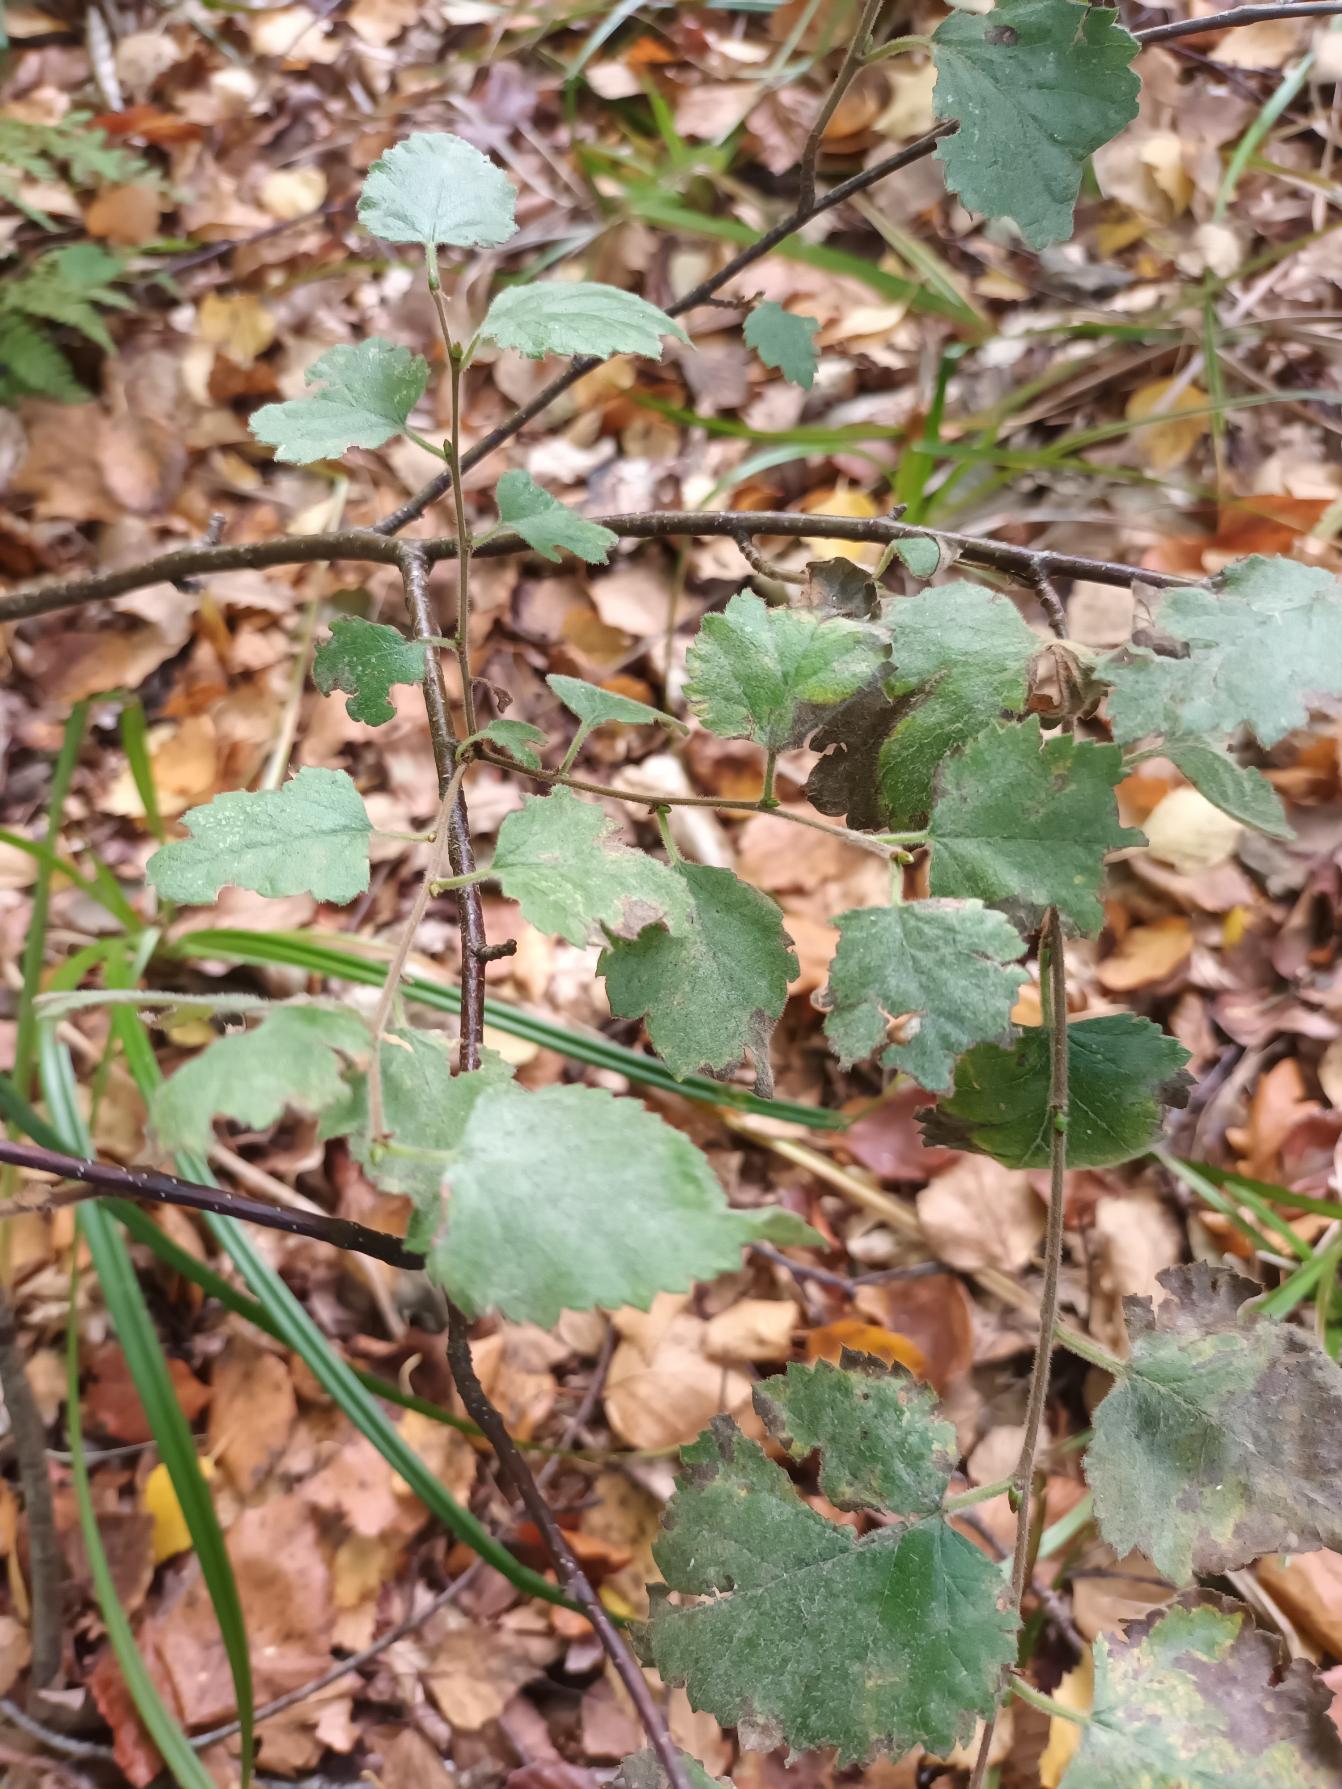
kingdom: Plantae
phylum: Tracheophyta
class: Magnoliopsida
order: Fagales
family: Betulaceae
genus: Betula
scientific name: Betula pubescens
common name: Dun-birk
